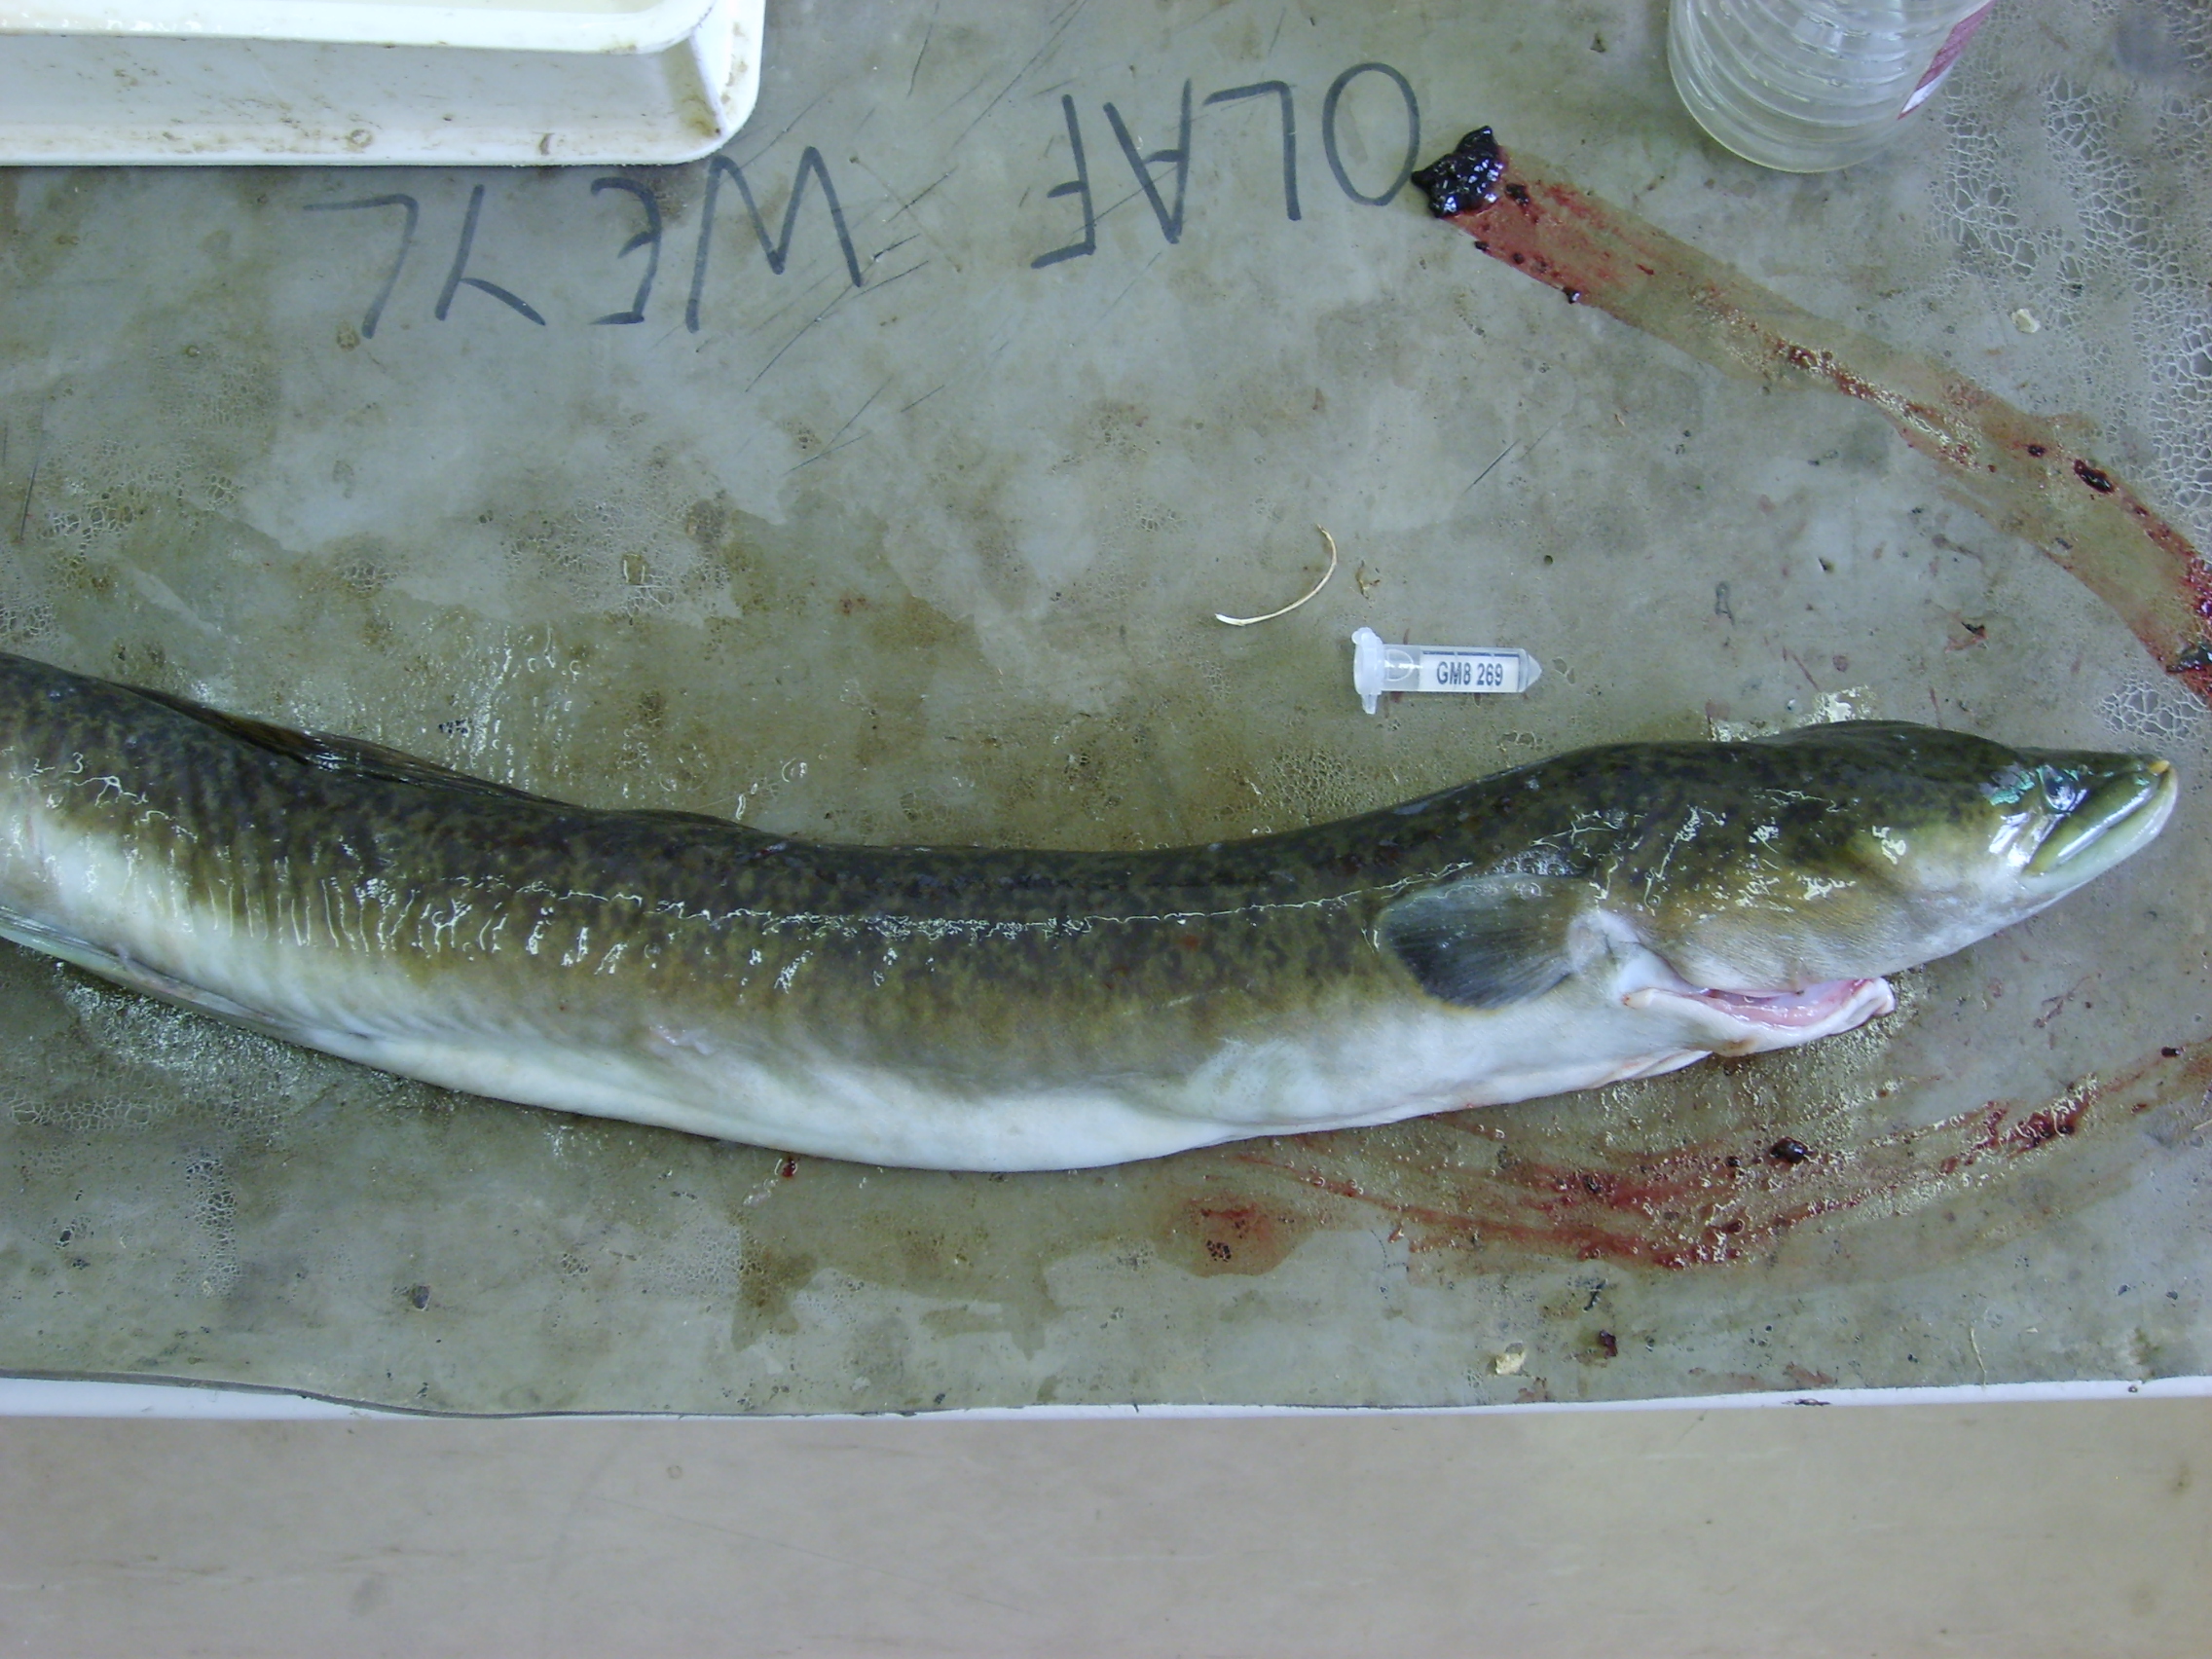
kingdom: Animalia
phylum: Chordata
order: Anguilliformes
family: Anguillidae
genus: Anguilla
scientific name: Anguilla marmorata
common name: Giant mottled eel
